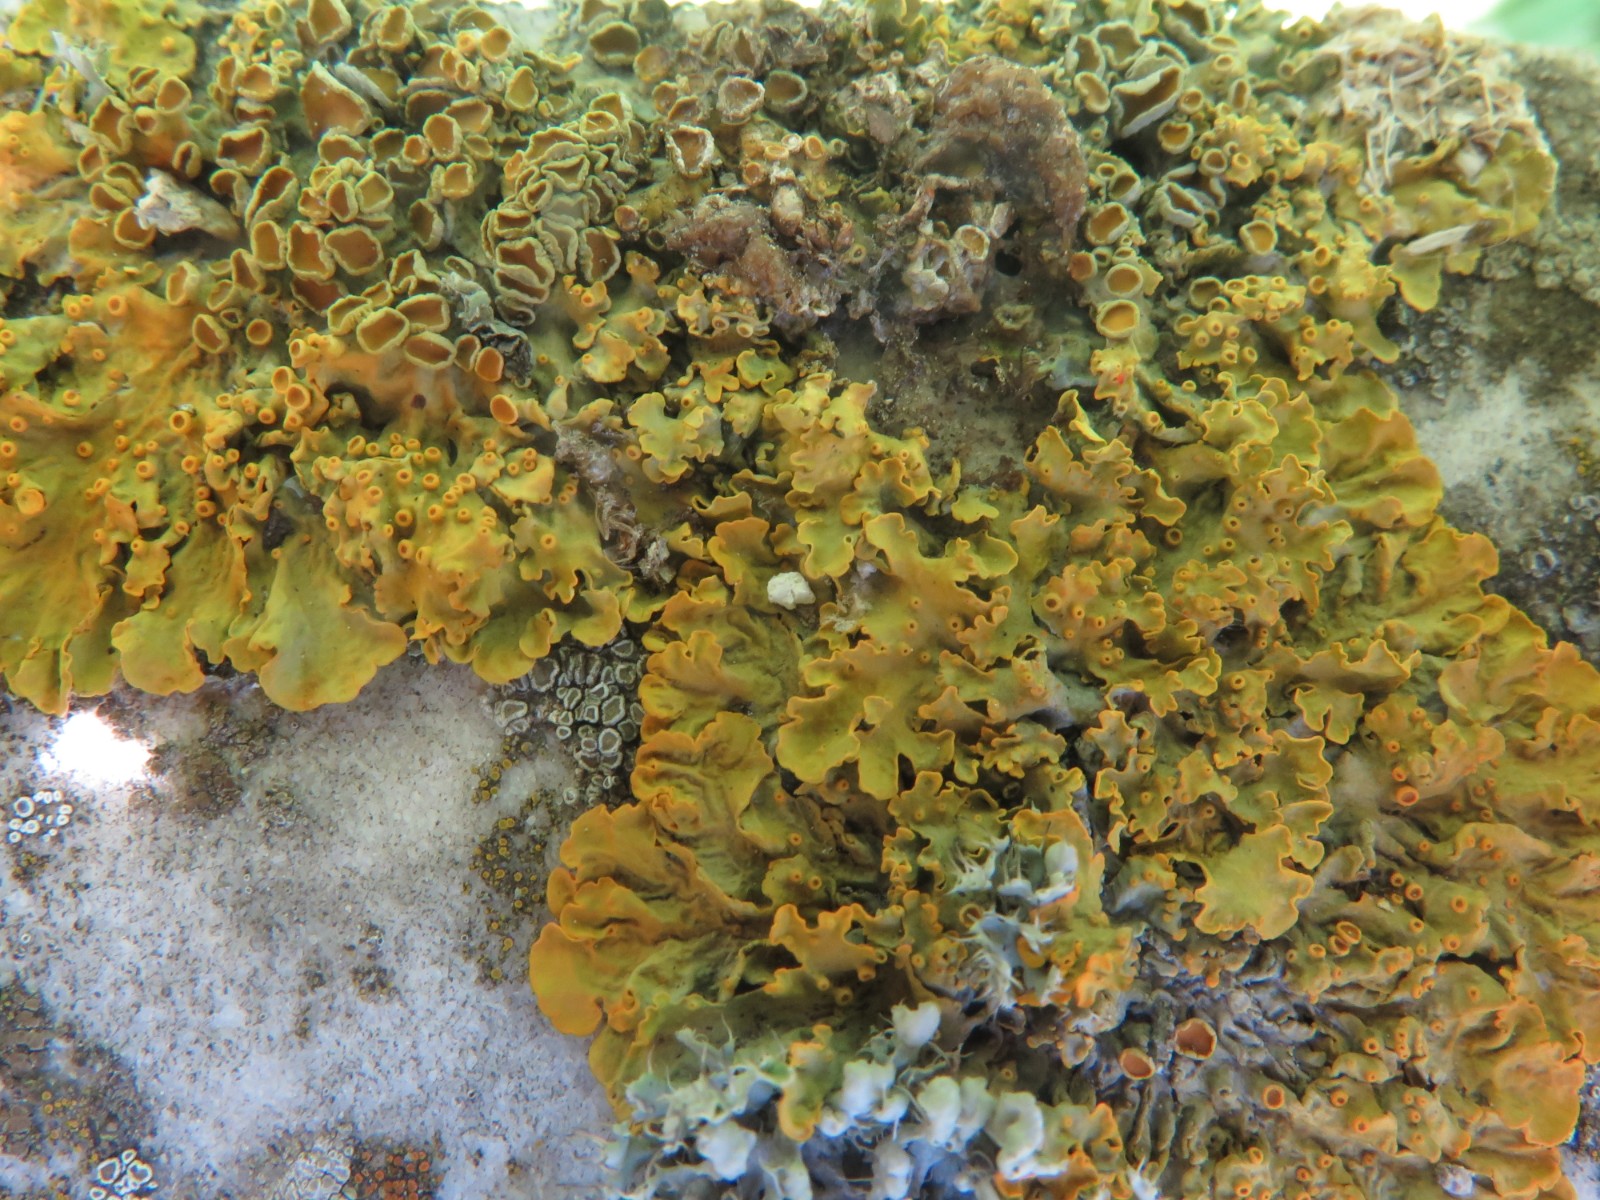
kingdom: Fungi
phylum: Ascomycota
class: Lecanoromycetes
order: Teloschistales
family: Teloschistaceae
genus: Xanthoria
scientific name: Xanthoria parietina
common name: almindelig væggelav
